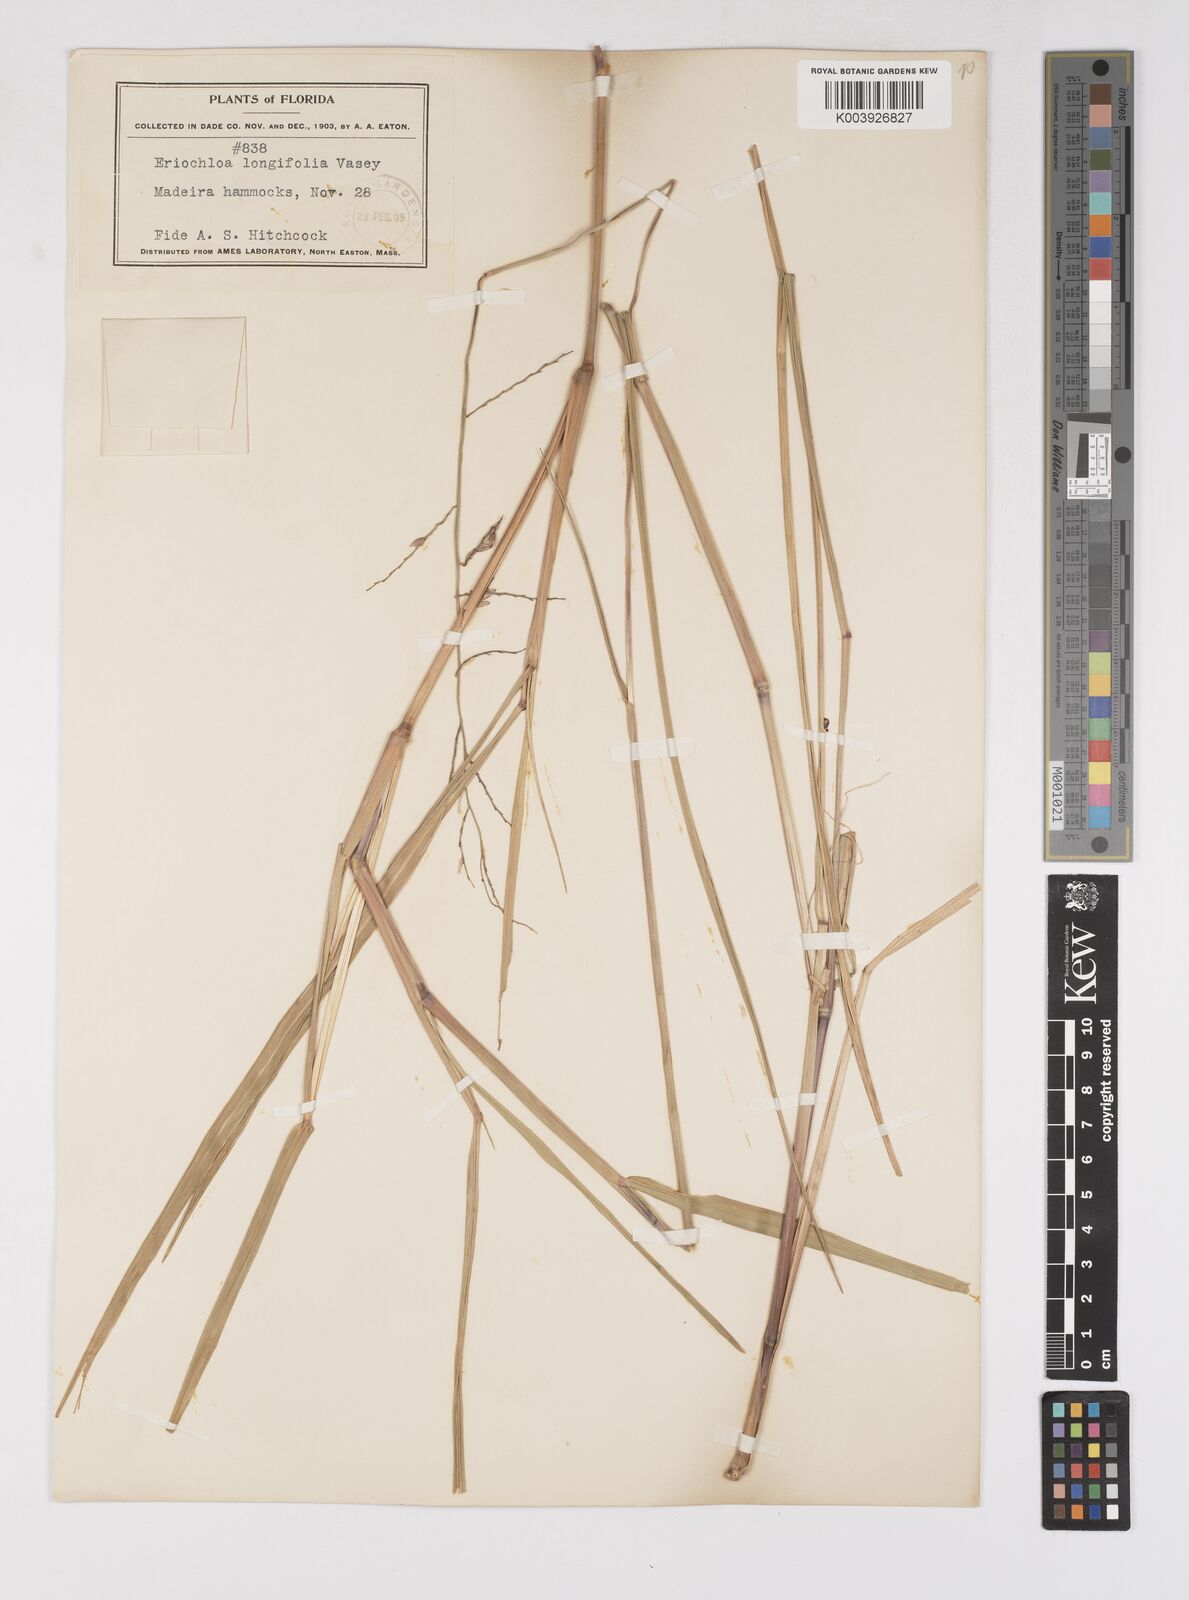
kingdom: Plantae
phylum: Tracheophyta
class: Liliopsida
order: Poales
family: Poaceae
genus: Eriochloa
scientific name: Eriochloa michauxii
